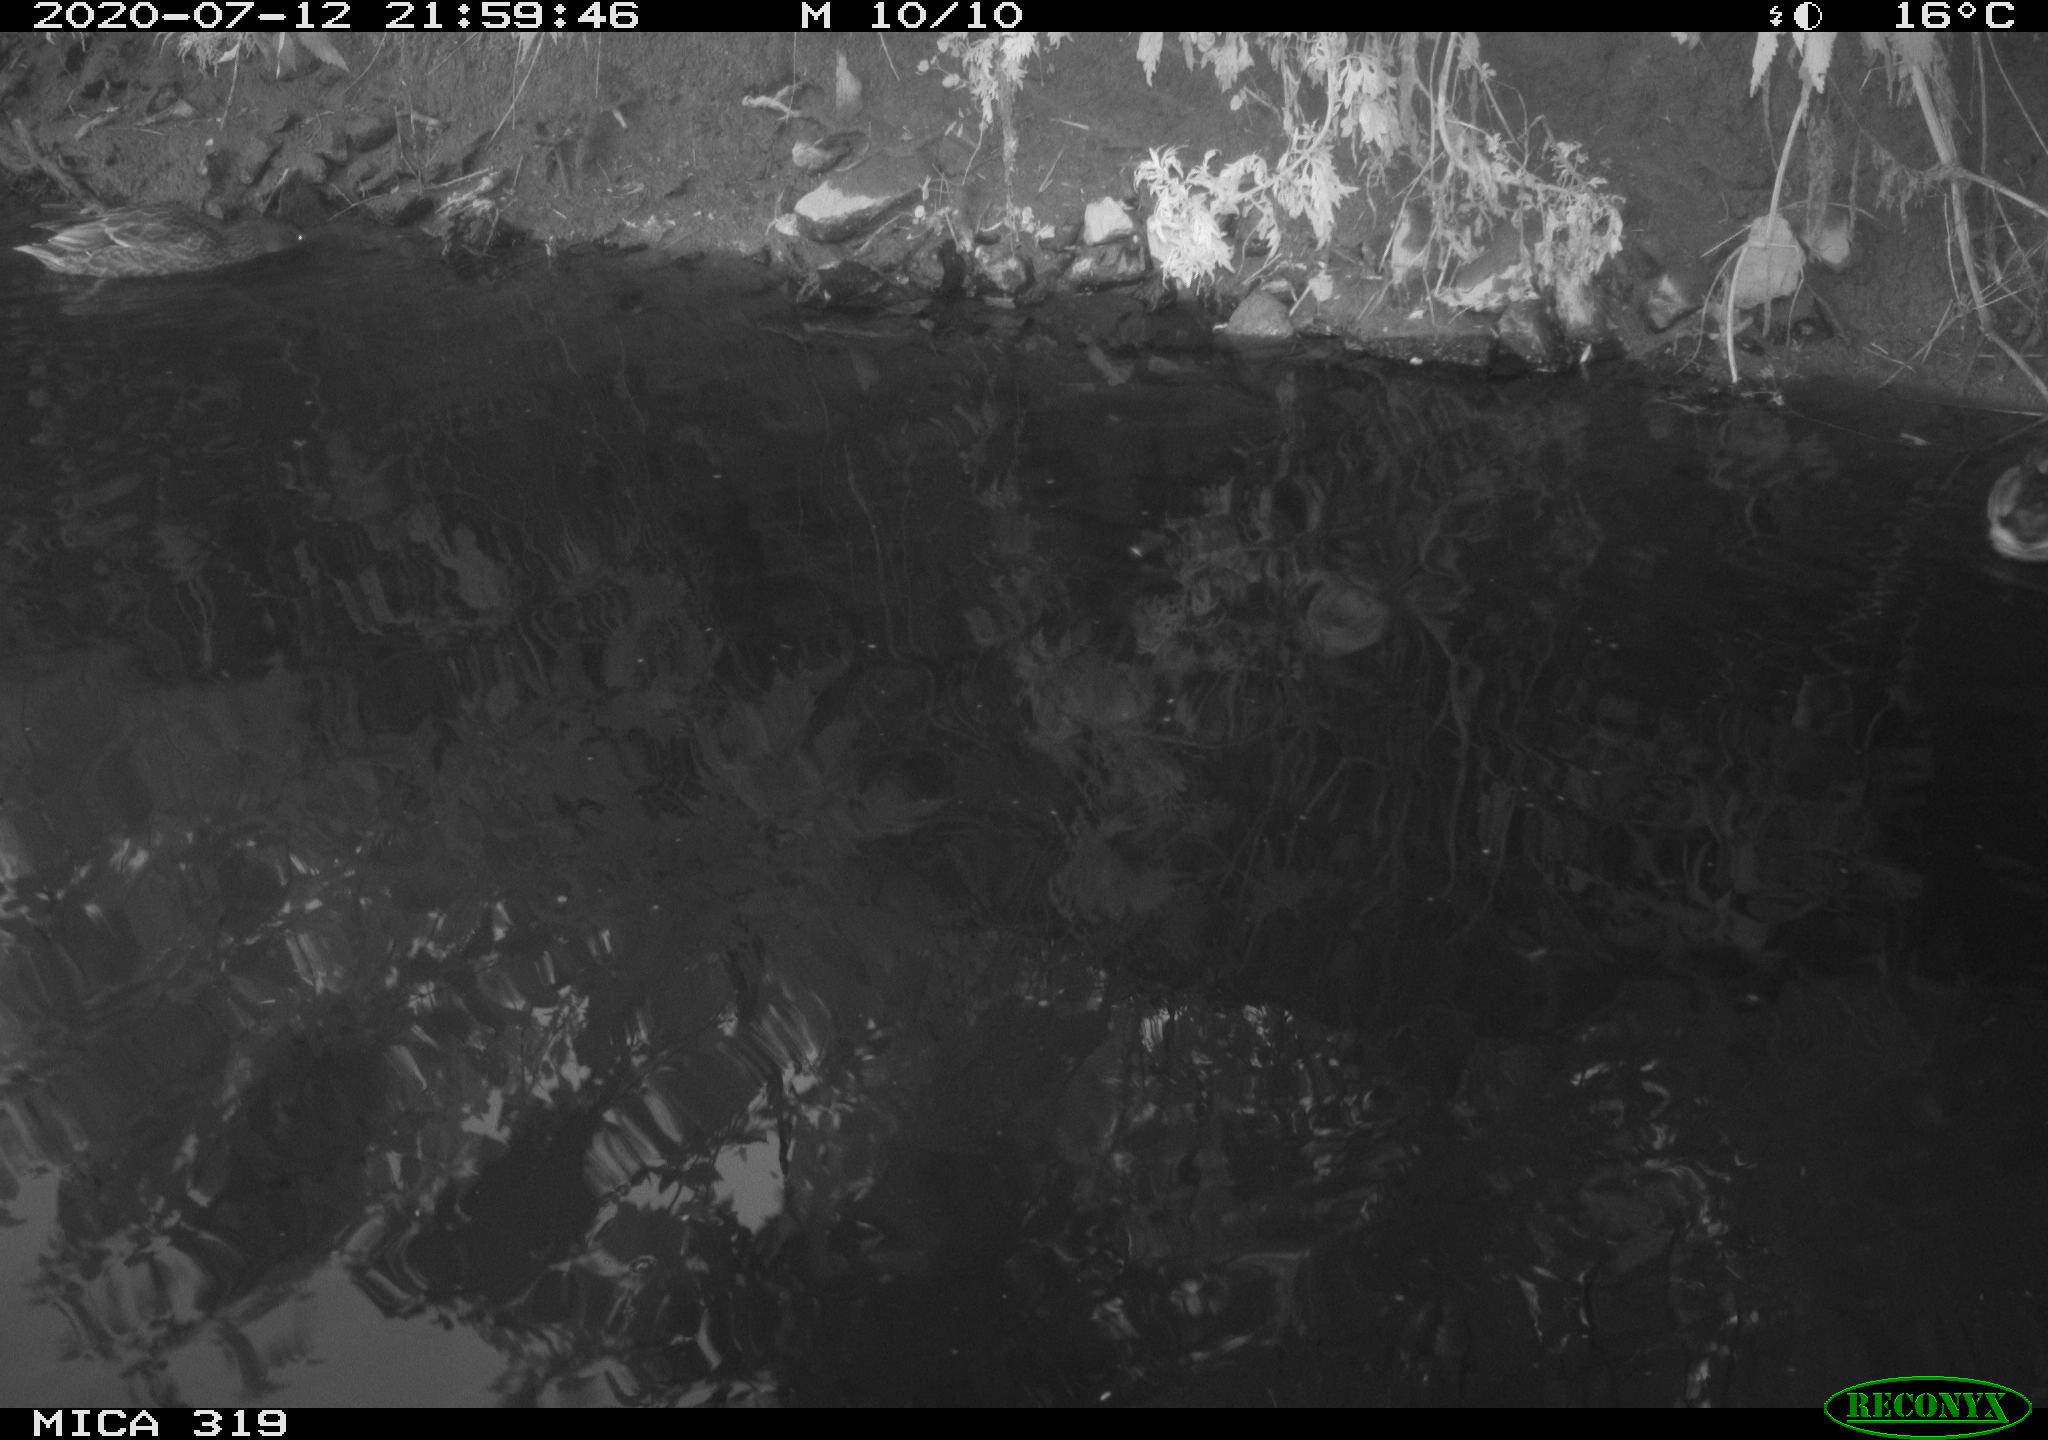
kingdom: Animalia
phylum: Chordata
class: Aves
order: Anseriformes
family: Anatidae
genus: Anas
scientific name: Anas platyrhynchos
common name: Mallard
